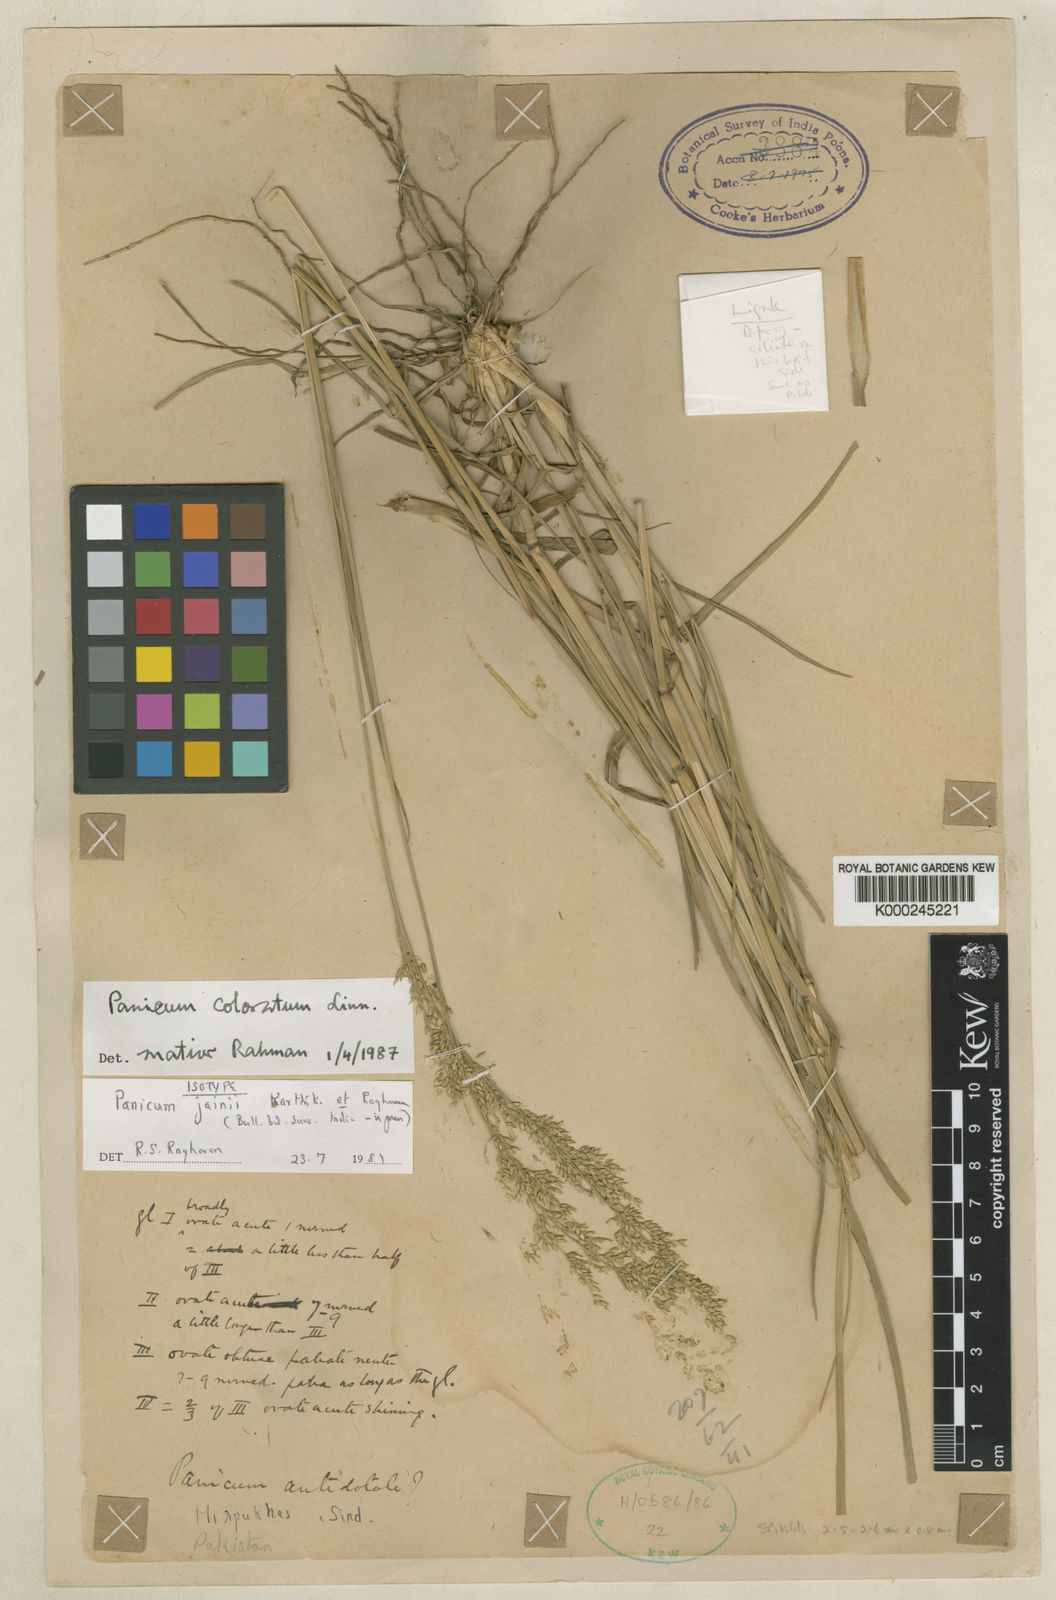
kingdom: Plantae
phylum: Tracheophyta
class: Liliopsida
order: Poales
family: Poaceae
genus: Panicum
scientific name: Panicum coloratum
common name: Kleingrass
